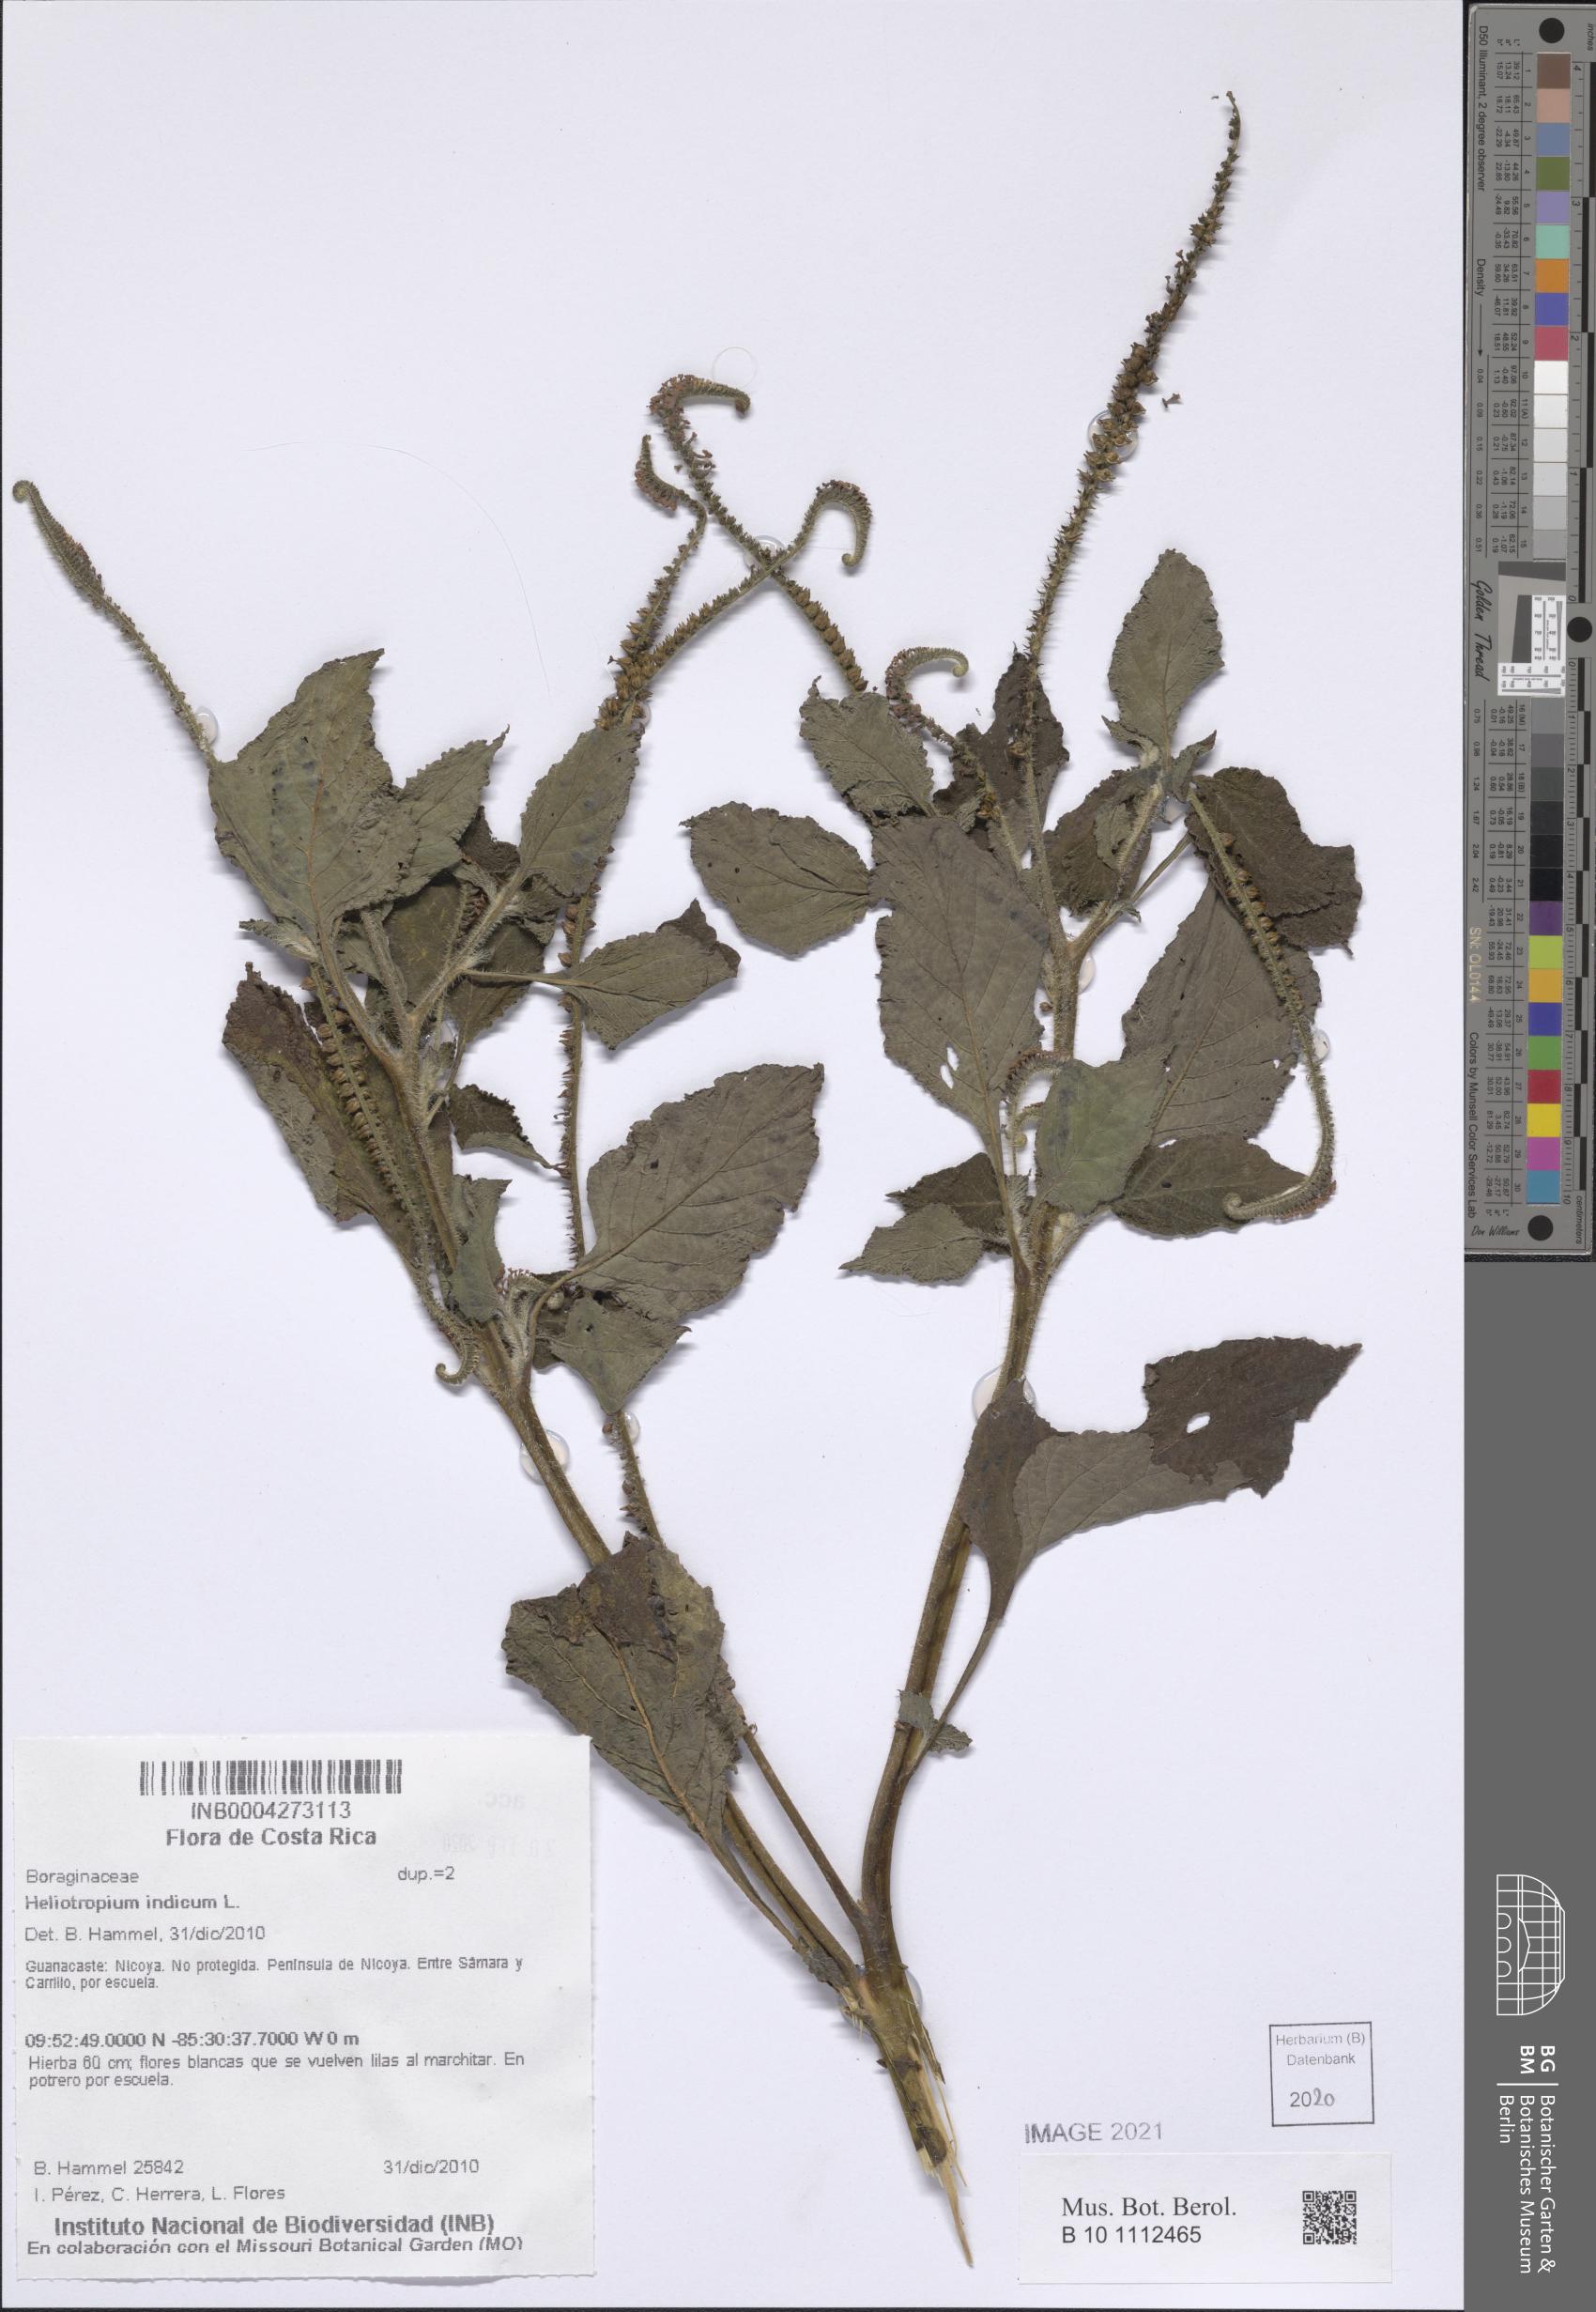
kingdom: Plantae
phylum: Tracheophyta
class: Magnoliopsida
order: Boraginales
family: Heliotropiaceae
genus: Heliotropium
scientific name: Heliotropium indicum
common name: Indian heliotrope
